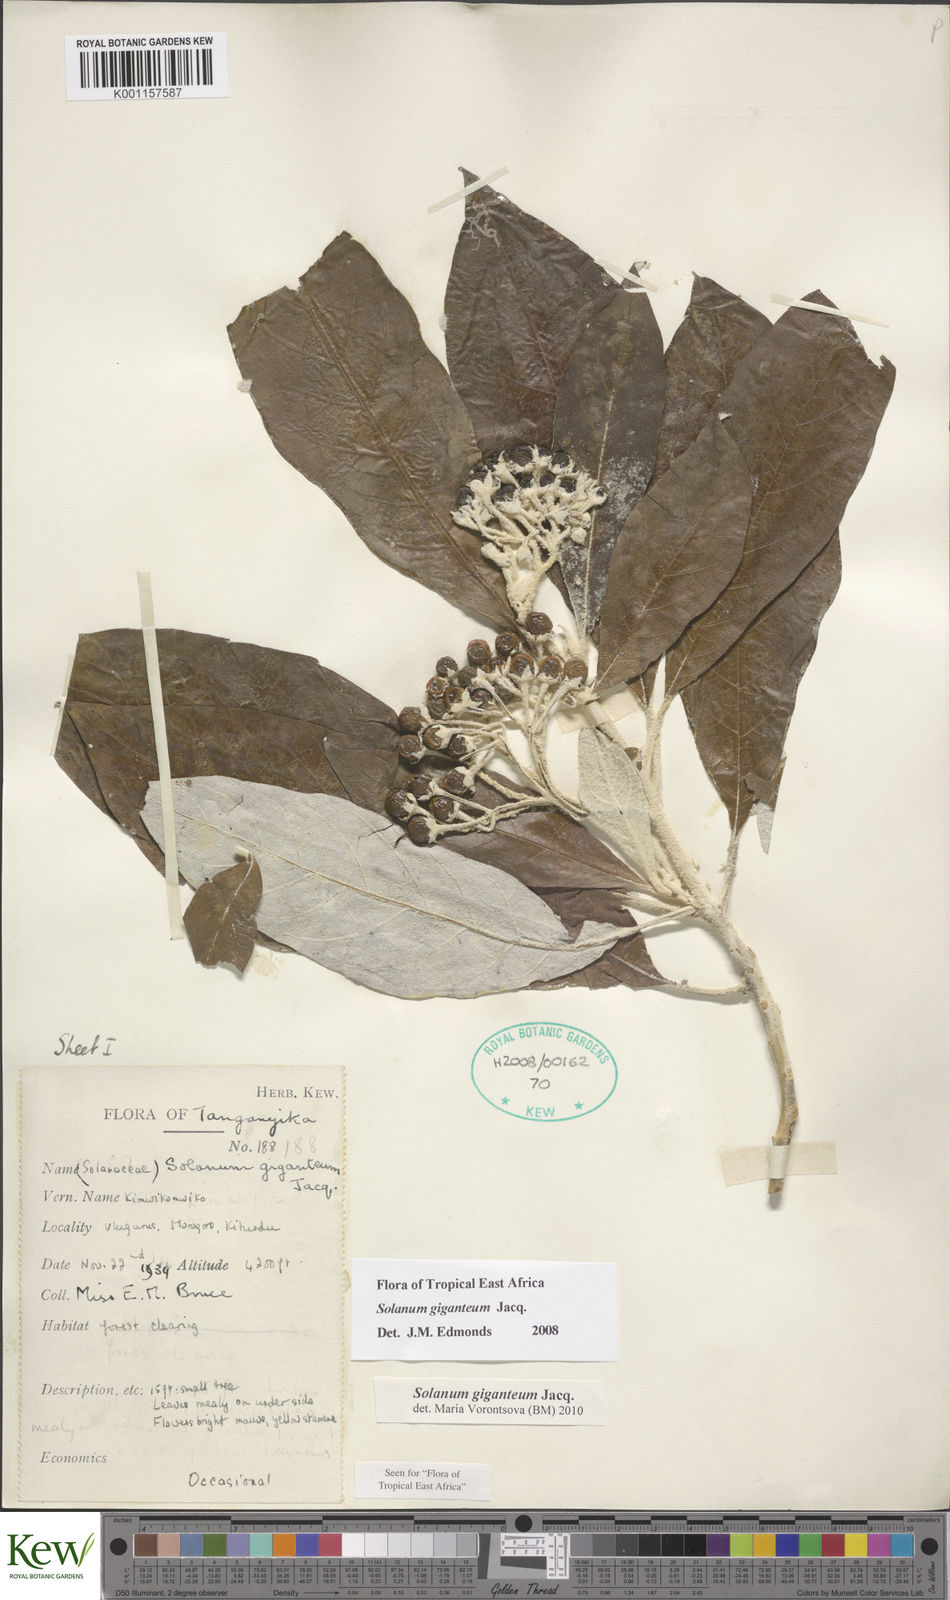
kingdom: Plantae
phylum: Tracheophyta
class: Magnoliopsida
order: Solanales
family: Solanaceae
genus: Solanum
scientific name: Solanum giganteum
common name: Healing-leaf-tree
